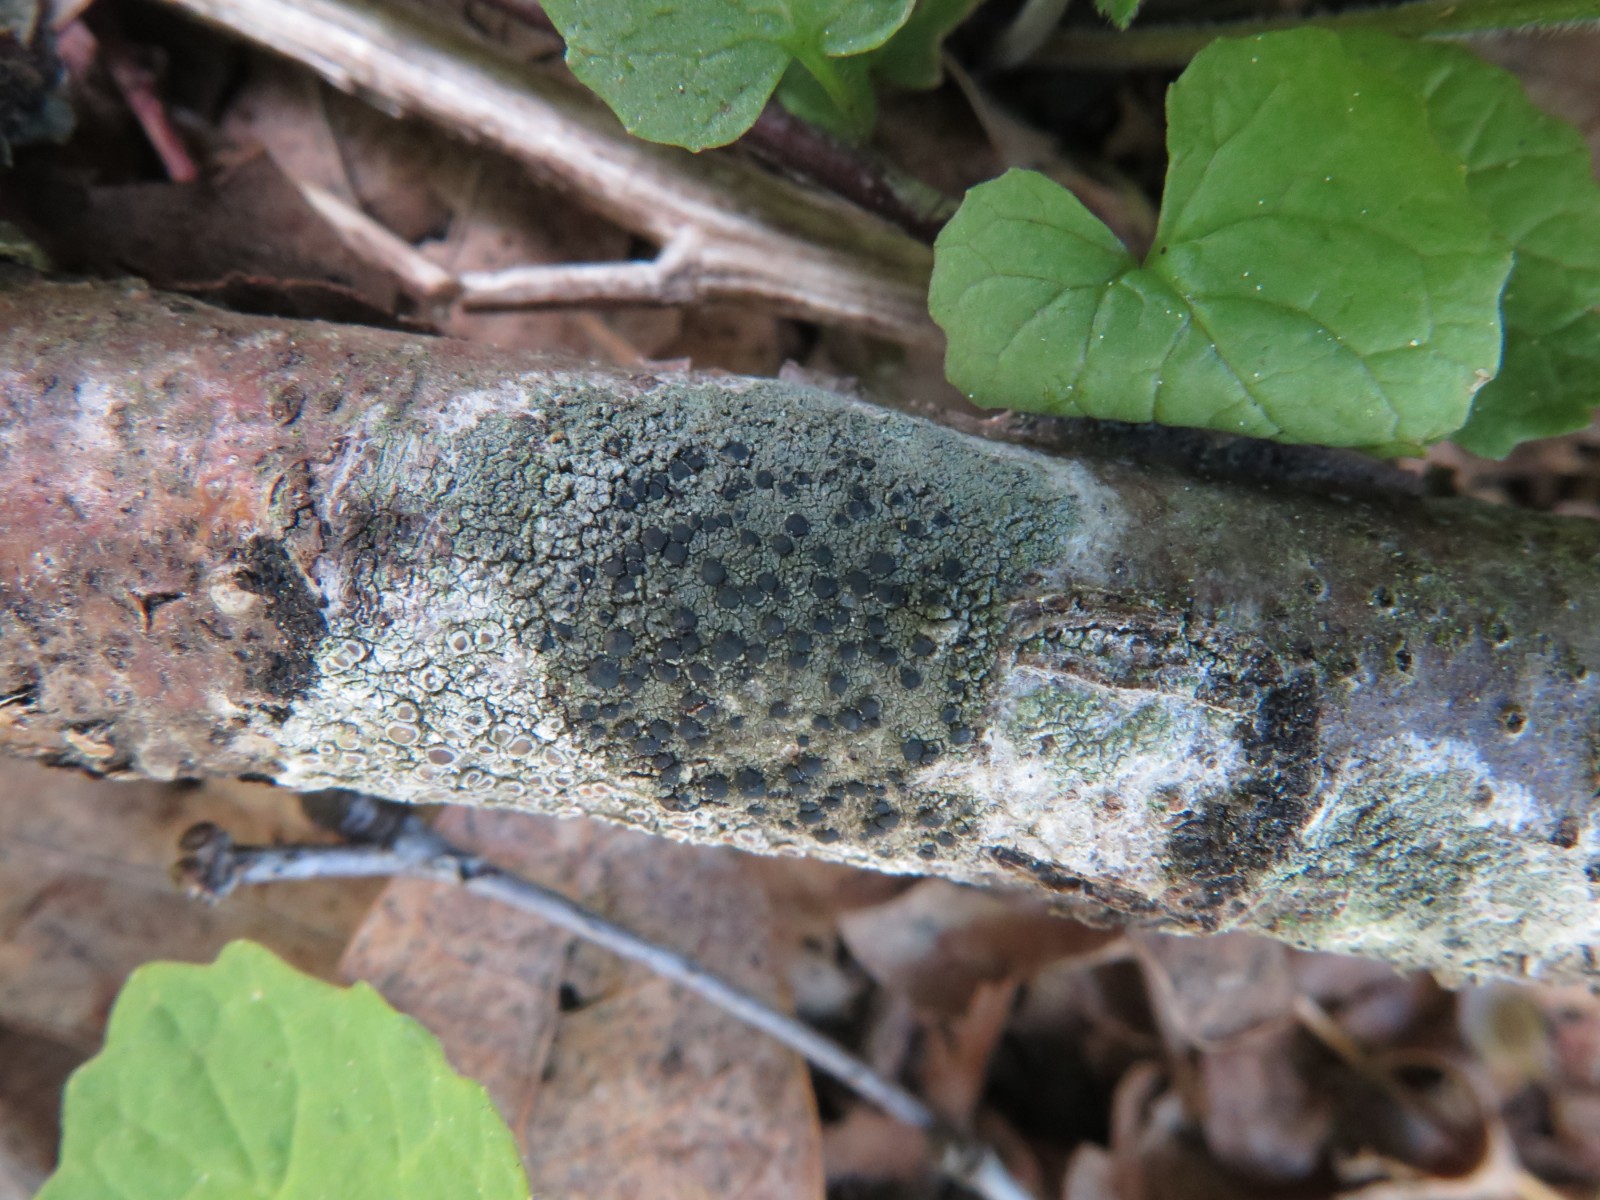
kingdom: Fungi
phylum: Ascomycota
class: Lecanoromycetes
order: Lecanorales
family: Lecanoraceae
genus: Lecidella
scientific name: Lecidella elaeochroma
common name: grågrøn skivelav
